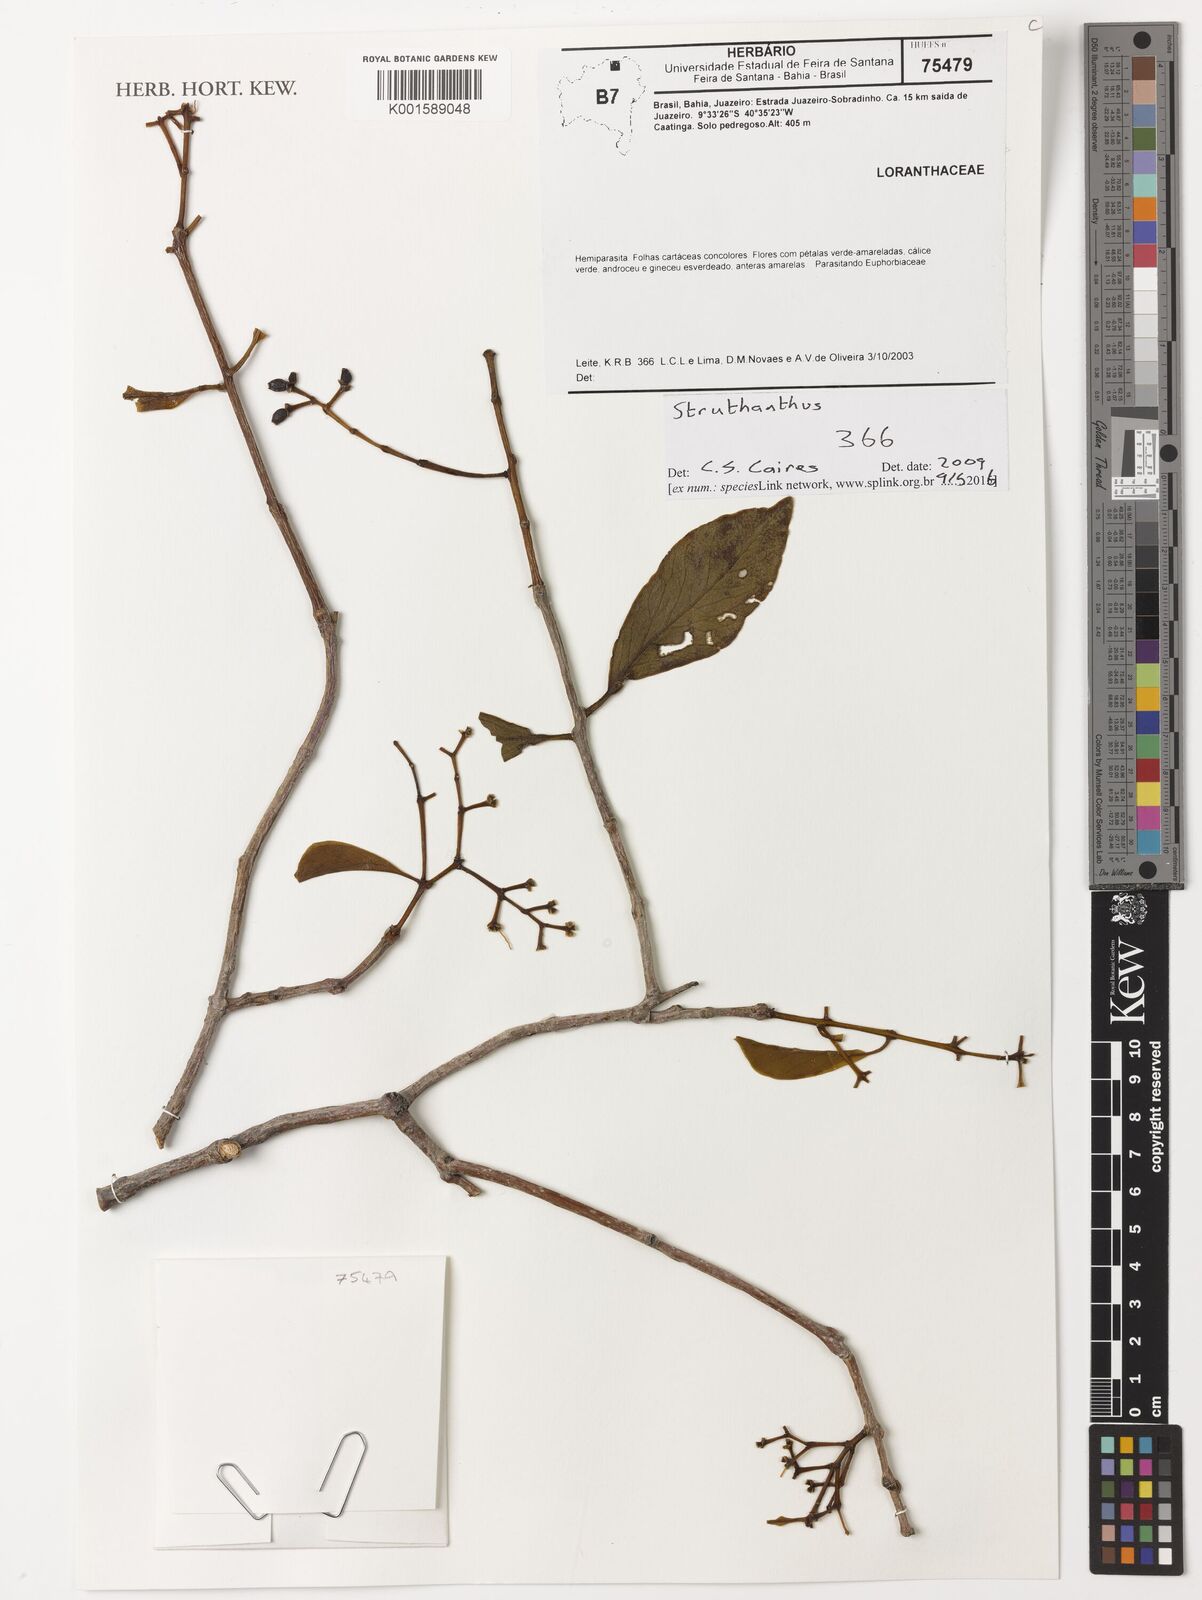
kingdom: Plantae
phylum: Tracheophyta
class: Magnoliopsida
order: Santalales
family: Loranthaceae
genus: Struthanthus
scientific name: Struthanthus
